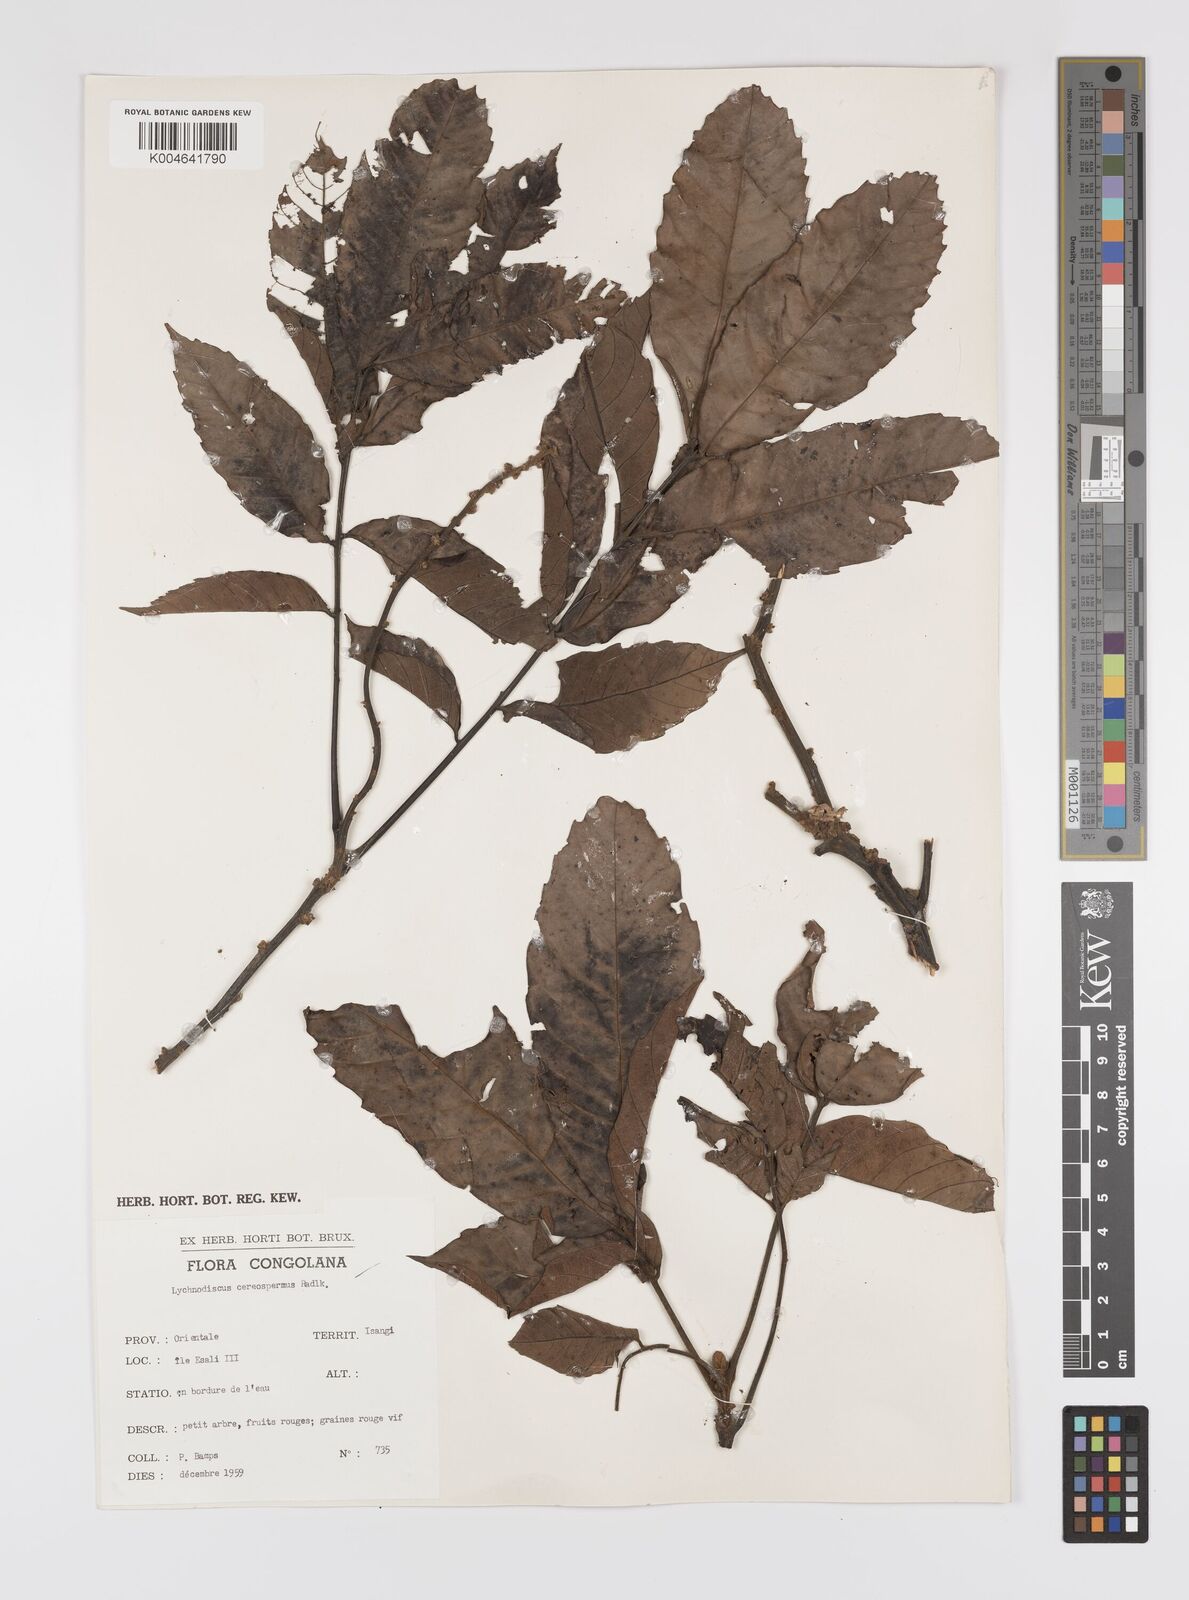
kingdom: Plantae
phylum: Tracheophyta
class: Magnoliopsida
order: Sapindales
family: Sapindaceae
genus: Lychnodiscus
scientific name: Lychnodiscus cerospermus
